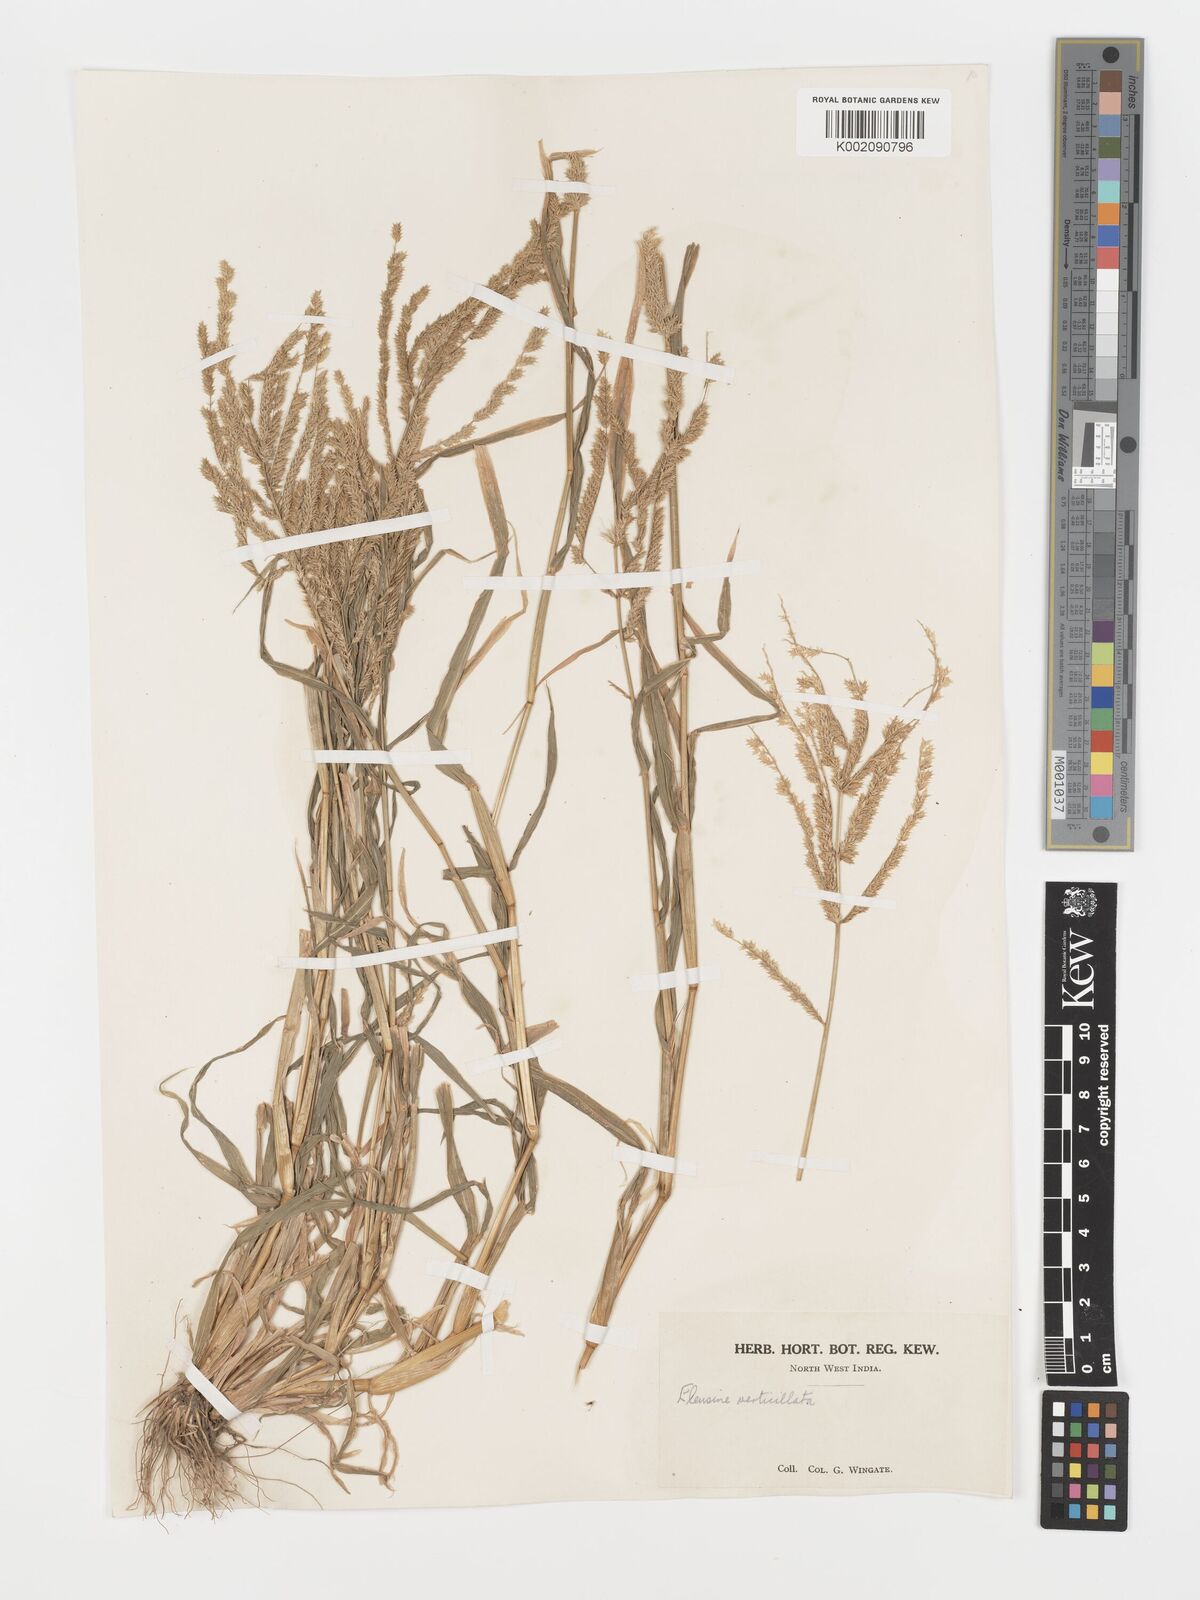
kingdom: Plantae
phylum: Tracheophyta
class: Liliopsida
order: Poales
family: Poaceae
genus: Acrachne
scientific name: Acrachne racemosa
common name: Goosegrass
